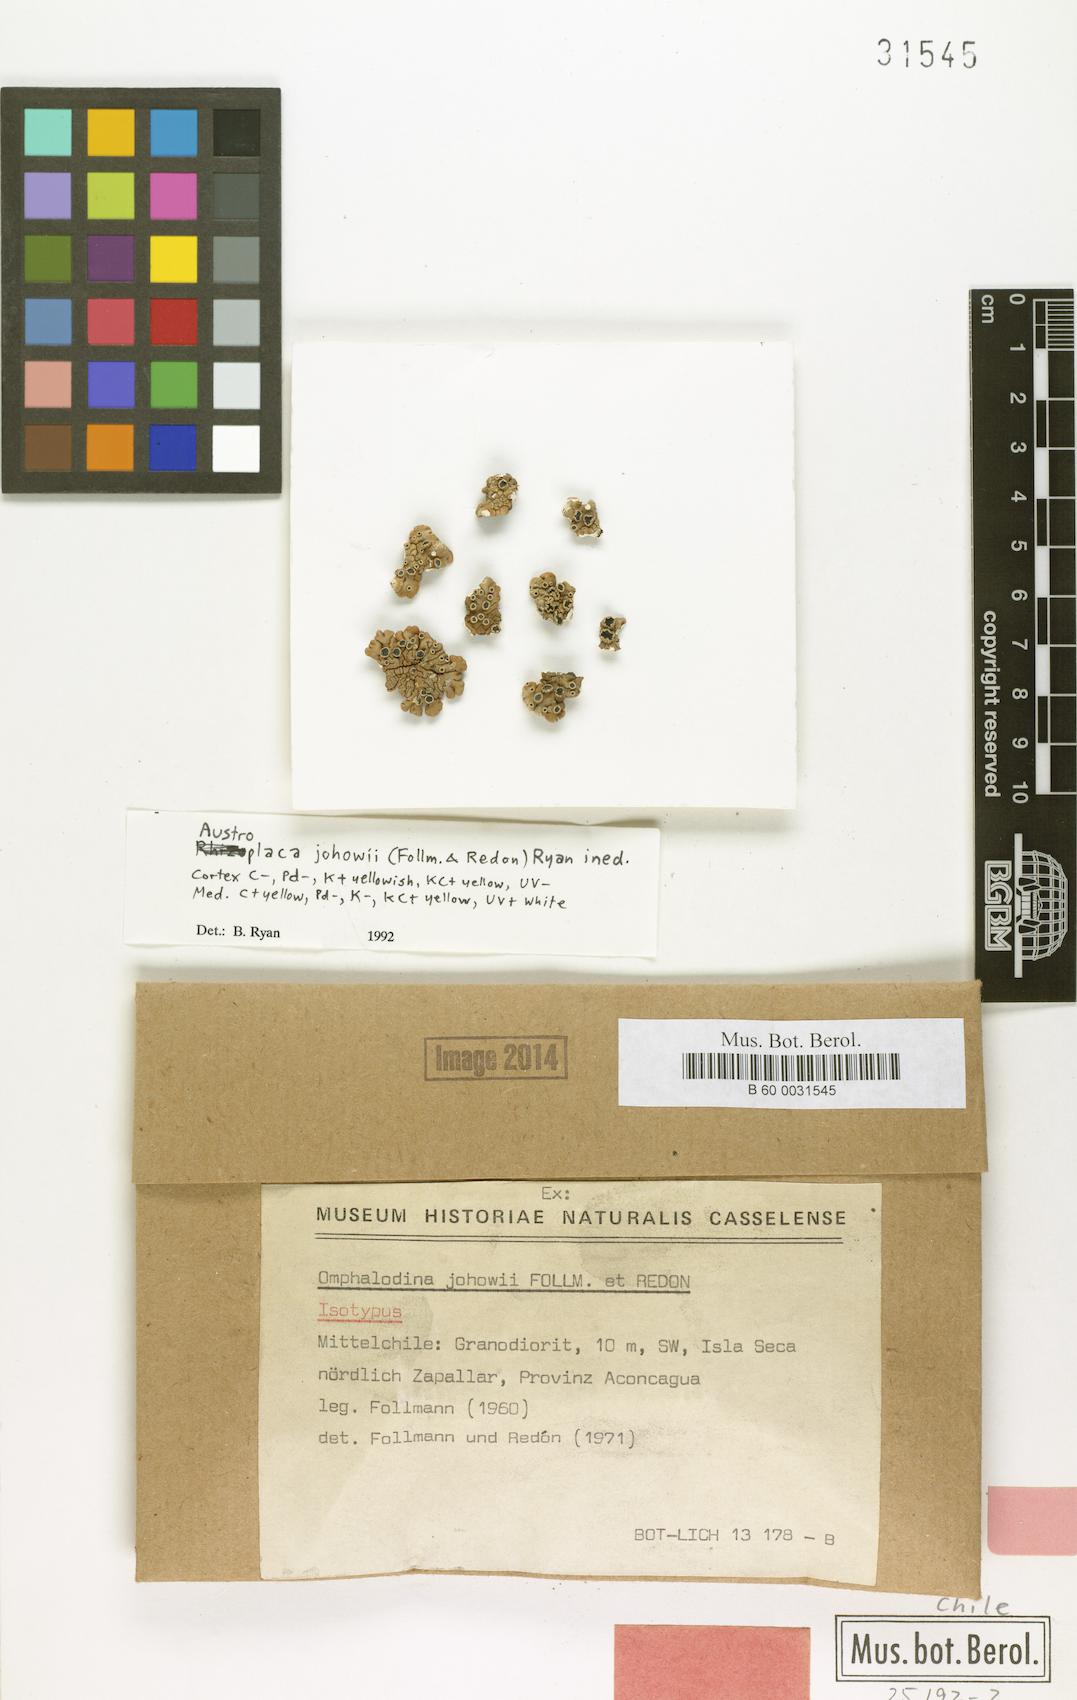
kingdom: Fungi
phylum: Ascomycota
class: Lecanoromycetes
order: Lecanorales
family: Lecanoraceae
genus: Omphalodina
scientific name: Omphalodina
